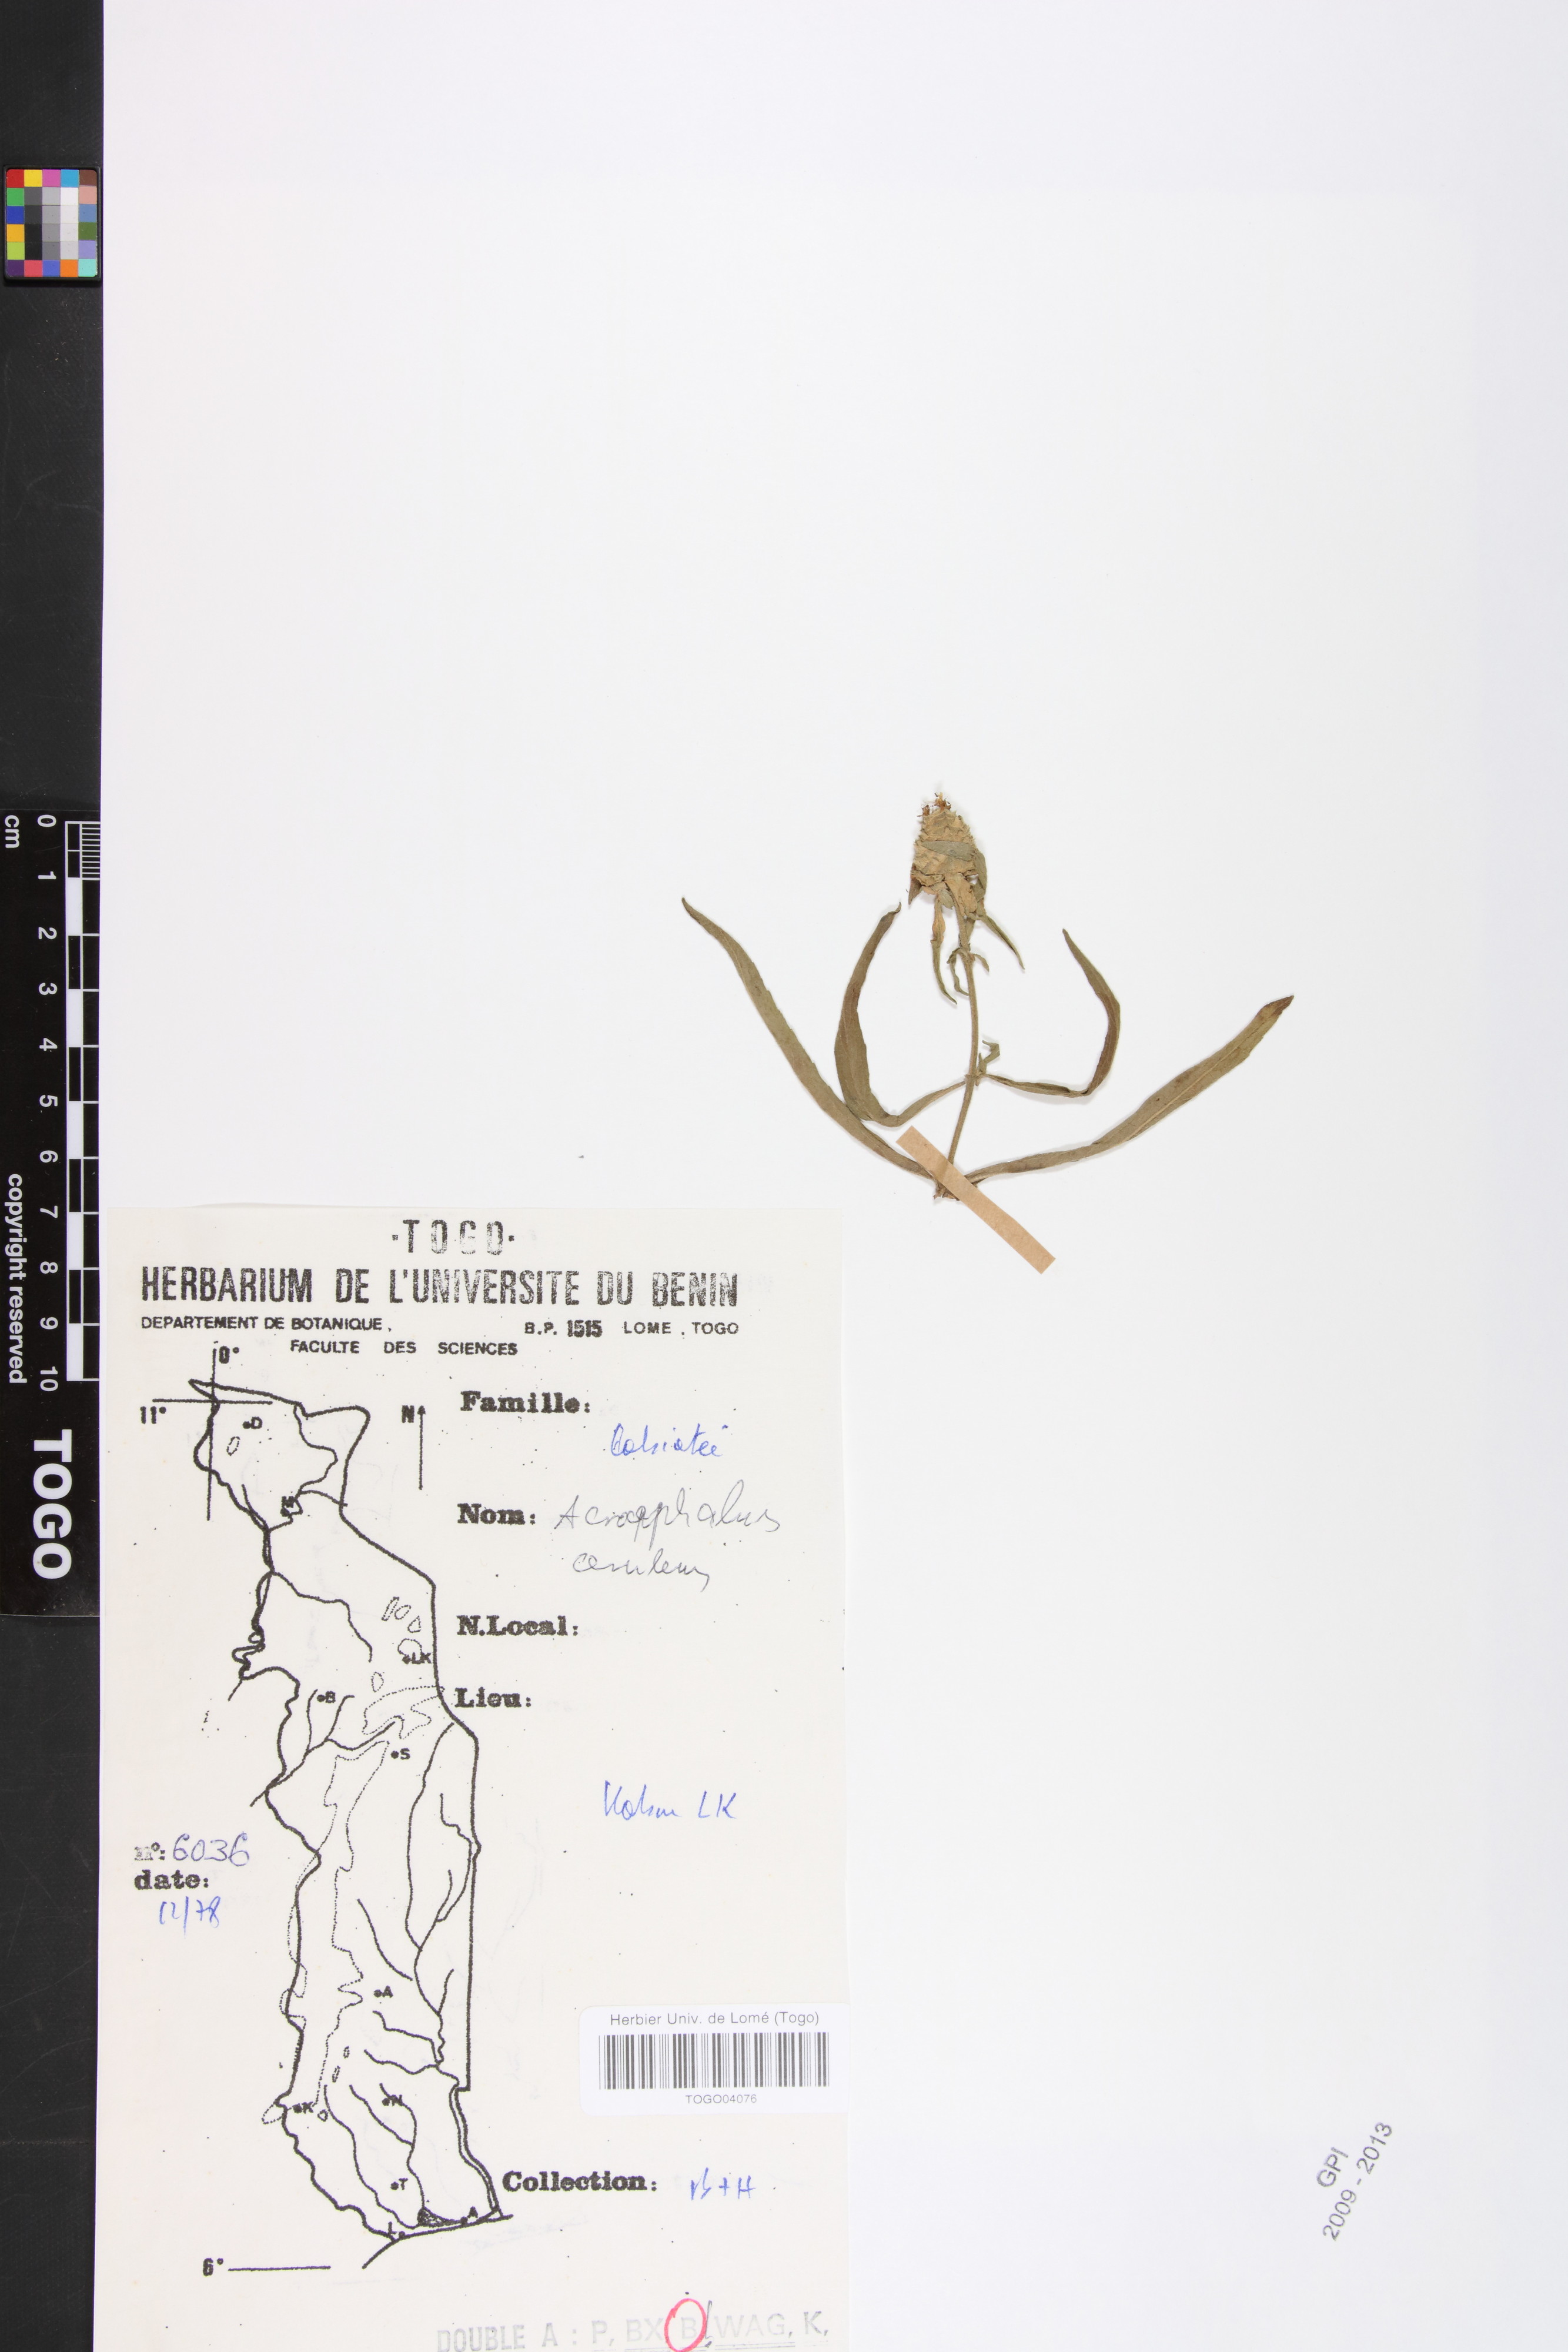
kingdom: Plantae
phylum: Tracheophyta
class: Magnoliopsida
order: Lamiales
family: Lamiaceae
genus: Haumaniastrum
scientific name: Haumaniastrum caeruleum
